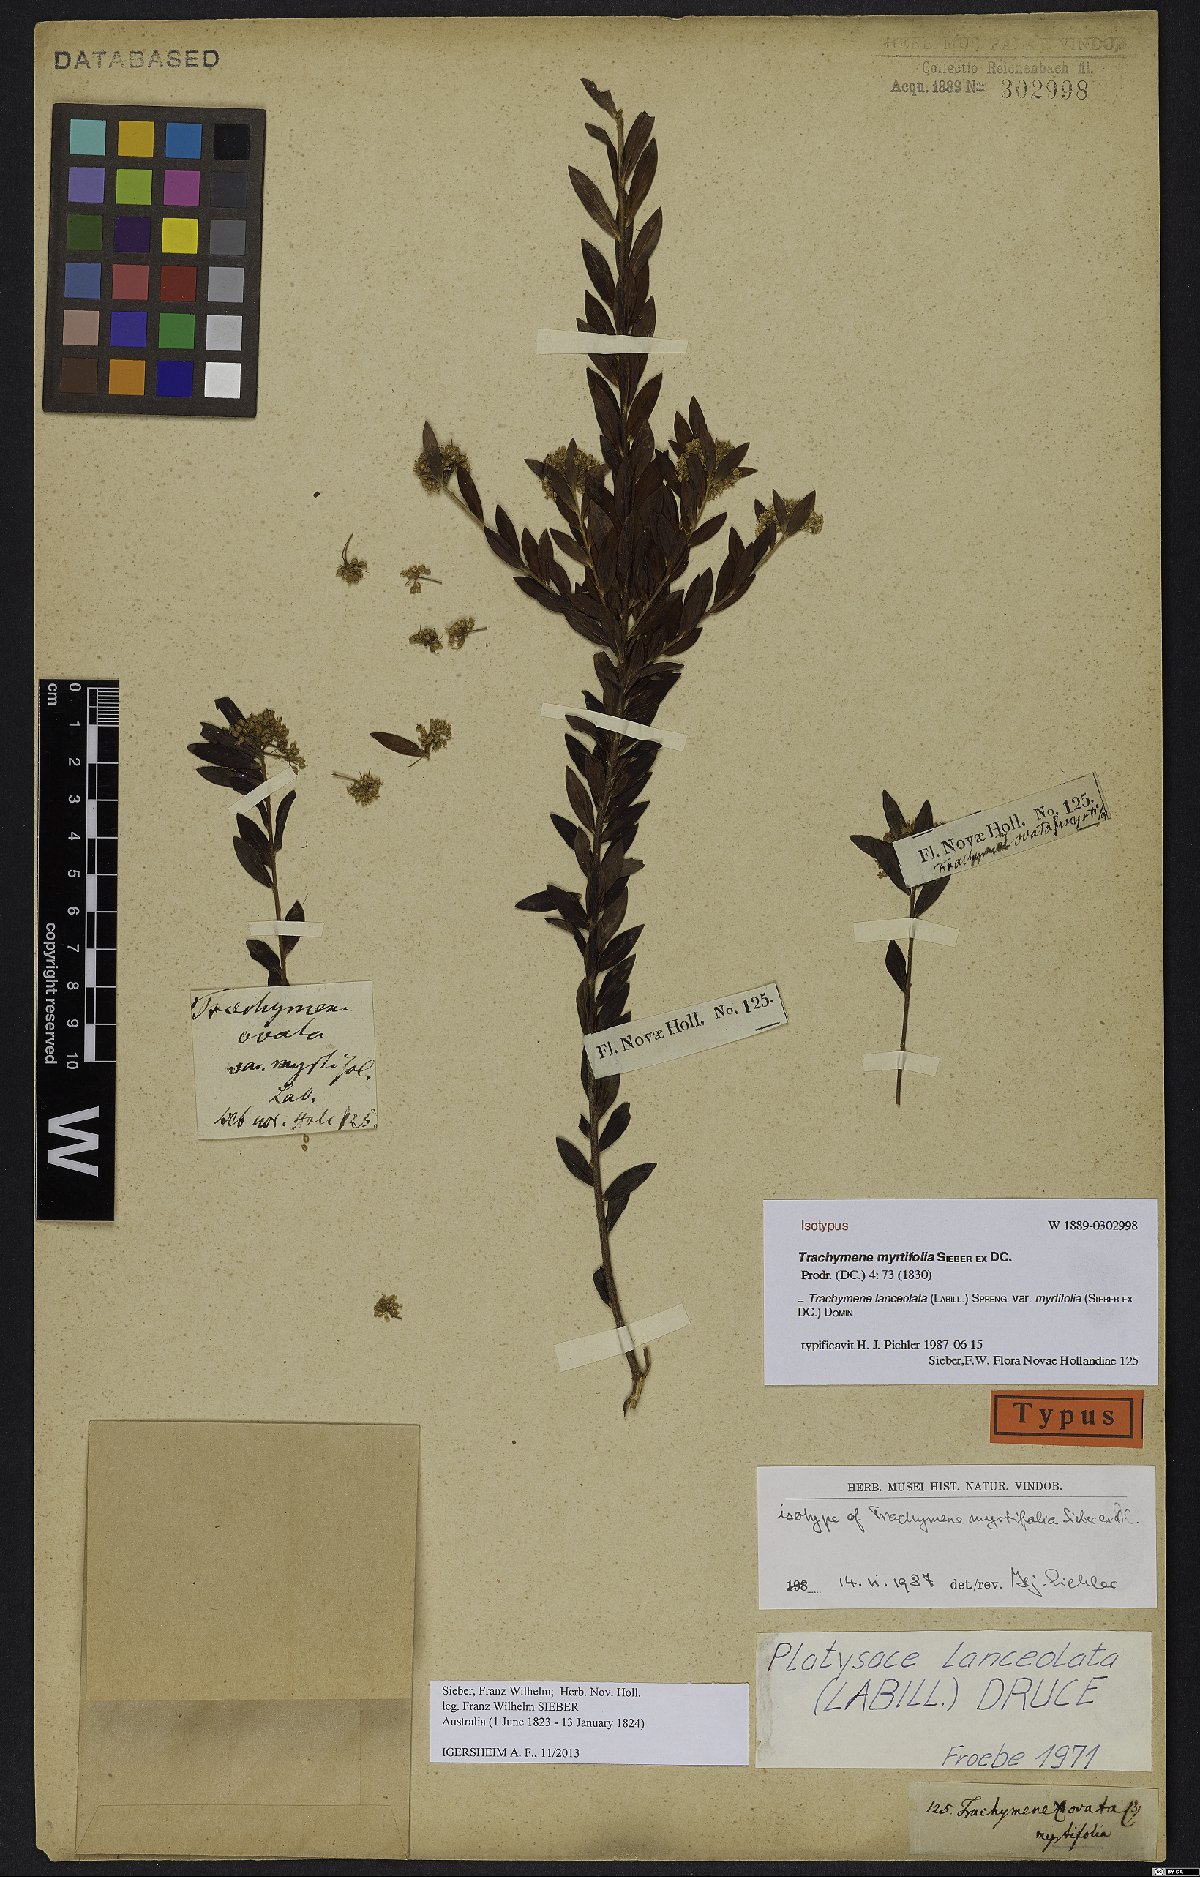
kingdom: Plantae
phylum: Tracheophyta
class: Magnoliopsida
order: Apiales
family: Apiaceae
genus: Platysace
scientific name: Platysace lanceolata
